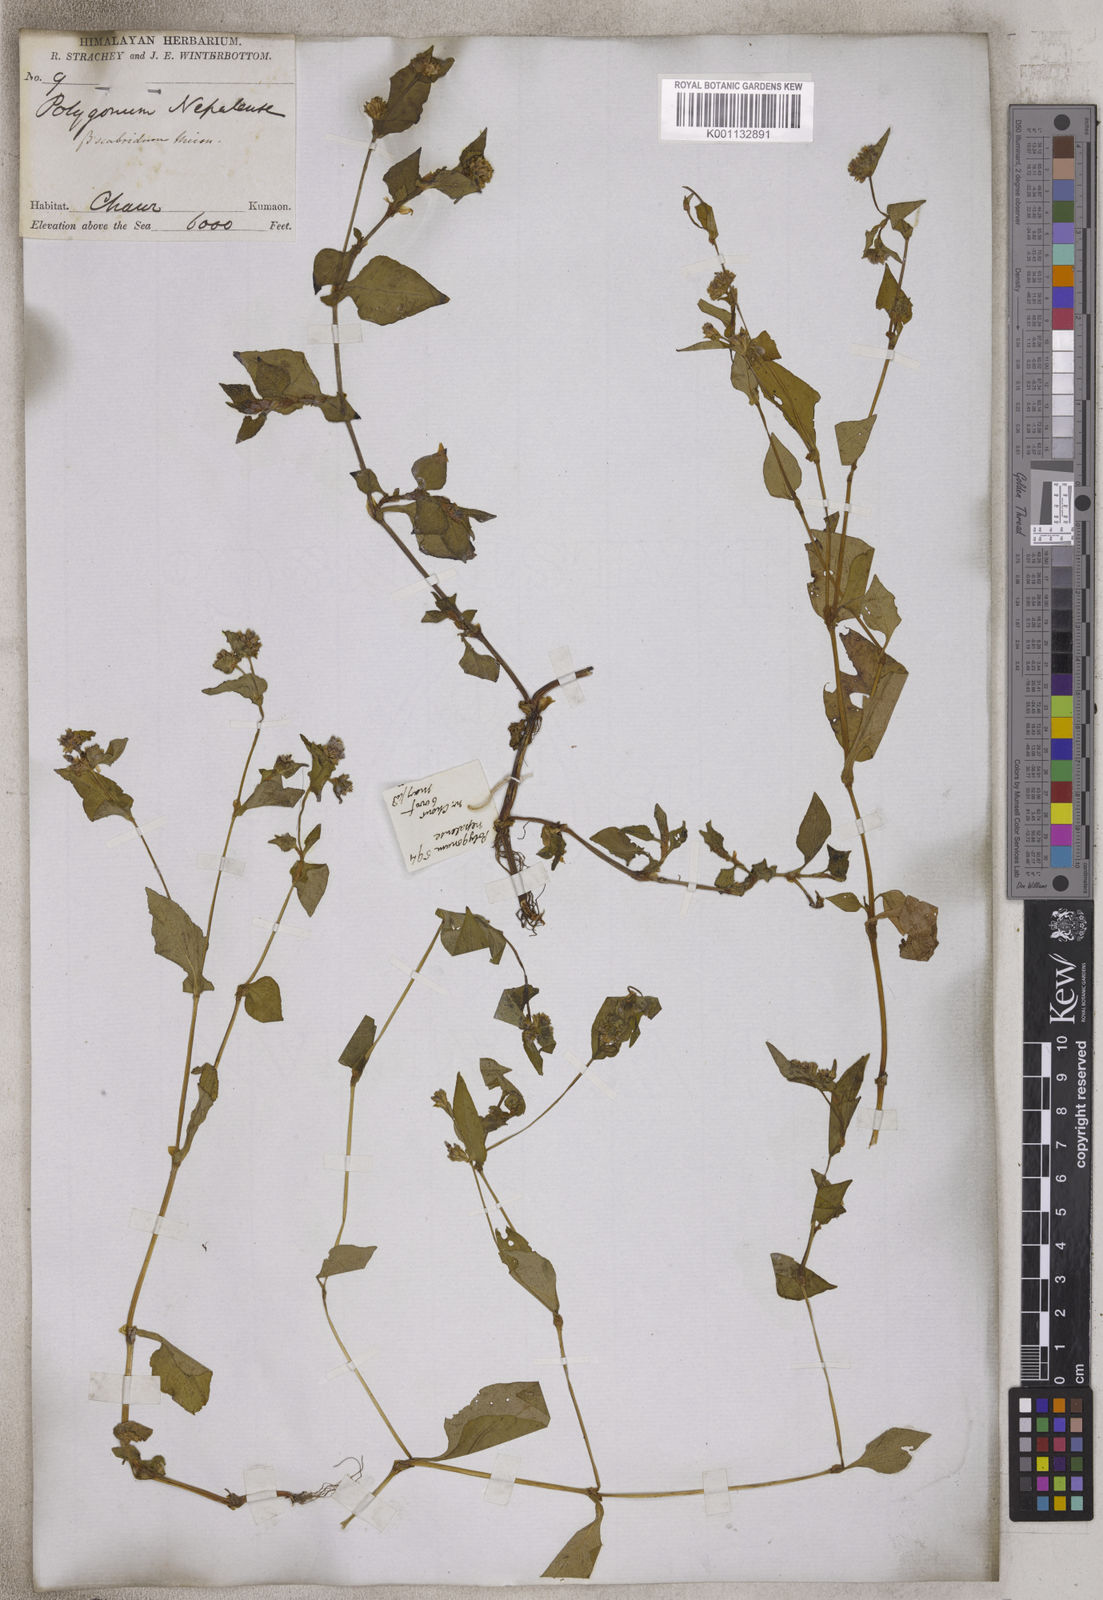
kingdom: Plantae
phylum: Tracheophyta
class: Magnoliopsida
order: Caryophyllales
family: Polygonaceae
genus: Persicaria
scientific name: Persicaria nepalensis
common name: Nepal persicaria
